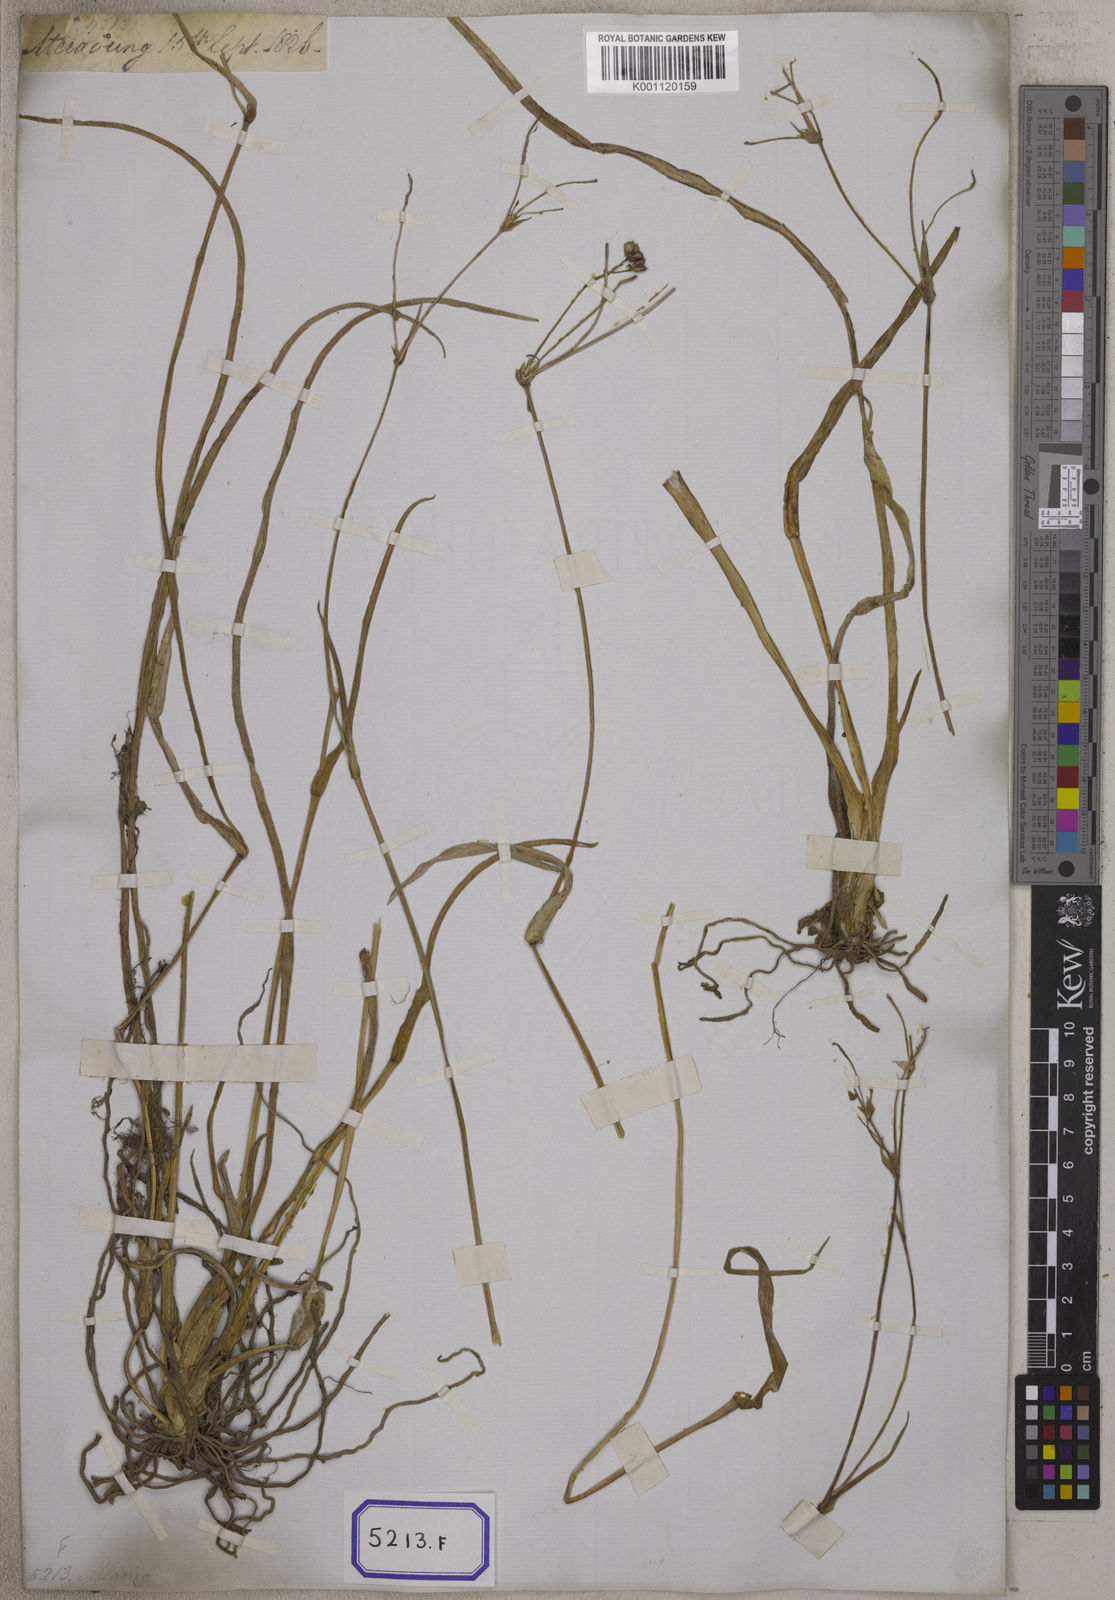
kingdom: Plantae
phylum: Tracheophyta
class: Liliopsida
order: Commelinales
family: Commelinaceae
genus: Aneilema
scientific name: Aneilema
